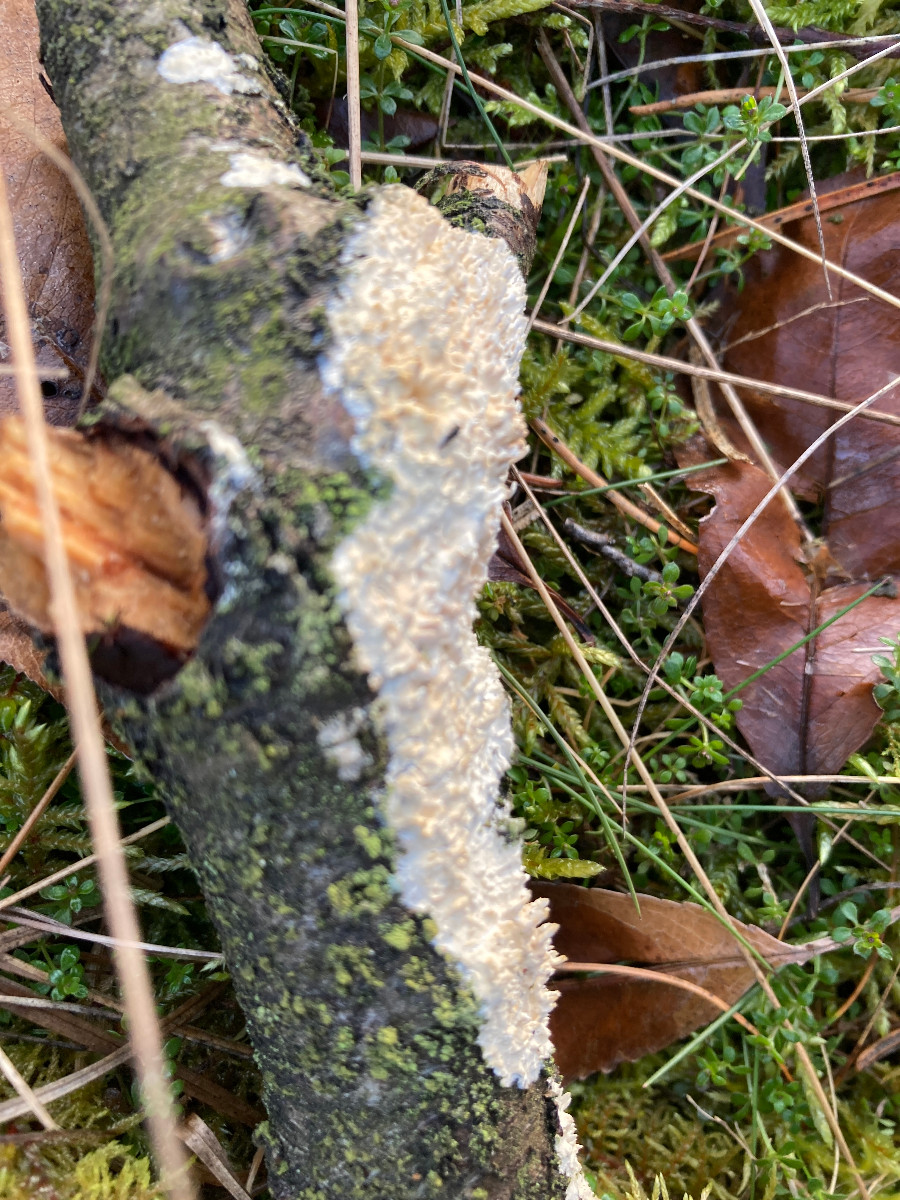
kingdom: Fungi
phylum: Basidiomycota
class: Agaricomycetes
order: Hymenochaetales
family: Schizoporaceae
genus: Xylodon
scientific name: Xylodon radula
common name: grovtandet kalkskind
